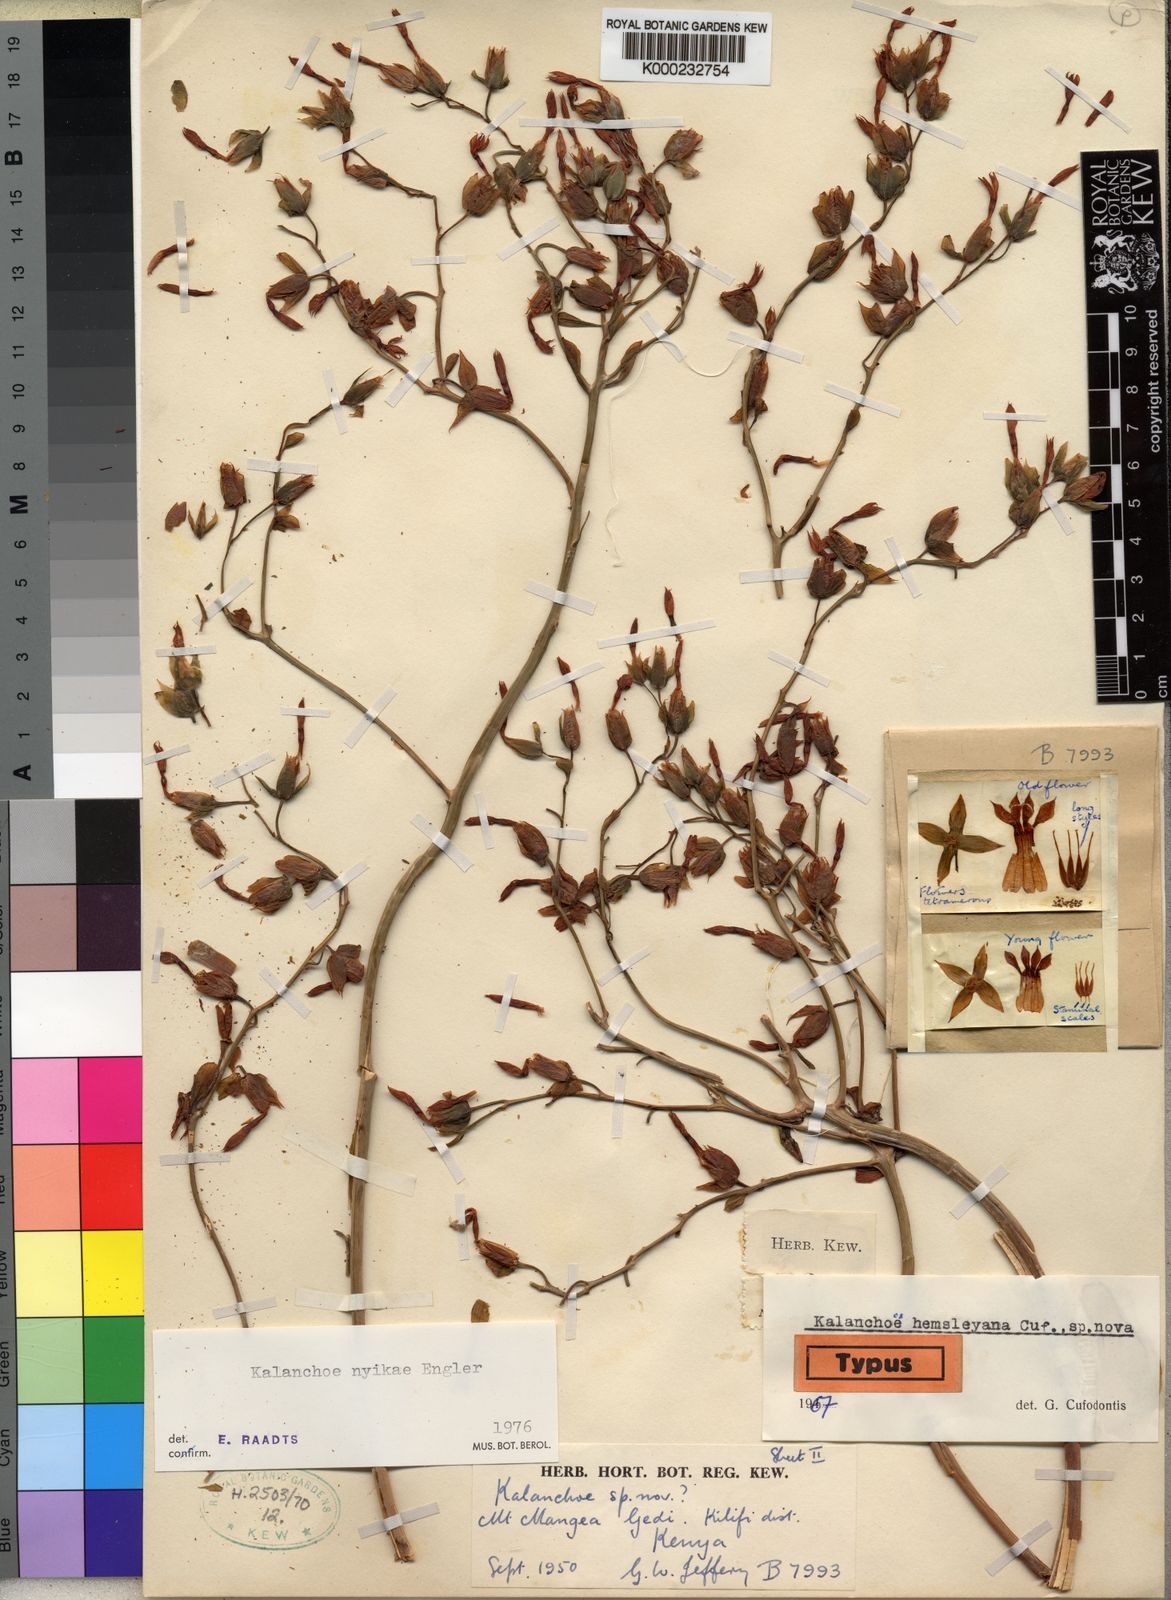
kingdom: Plantae
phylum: Tracheophyta
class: Magnoliopsida
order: Saxifragales
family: Crassulaceae
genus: Kalanchoe
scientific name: Kalanchoe nyikae
